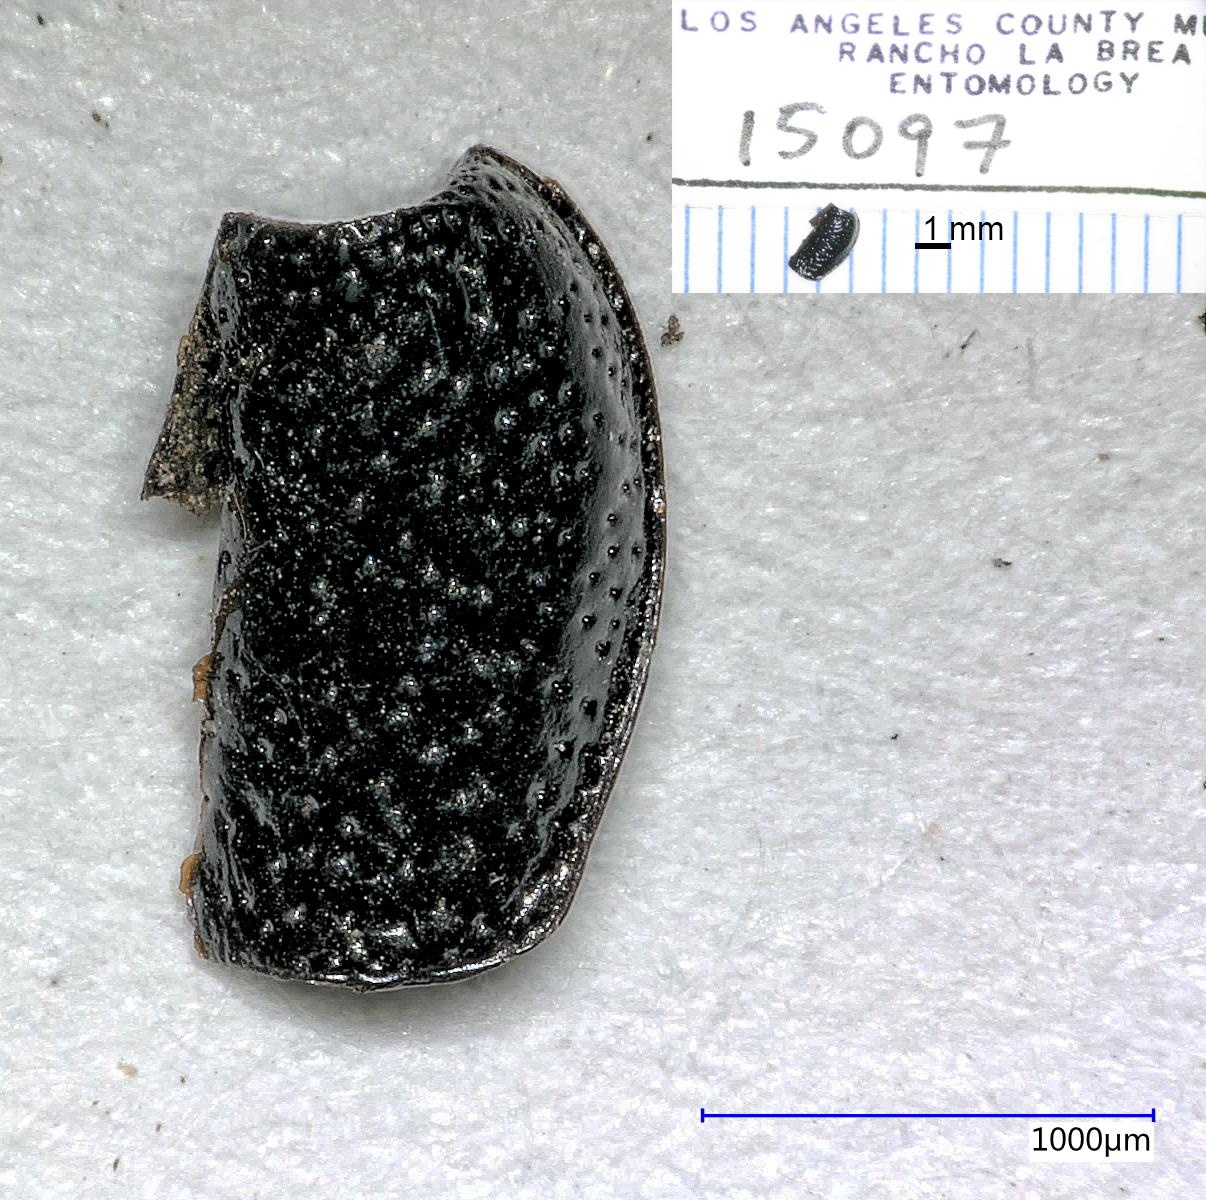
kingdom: Animalia
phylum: Arthropoda
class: Insecta
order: Coleoptera
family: Carabidae
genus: Dicheirus
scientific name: Dicheirus piceus
